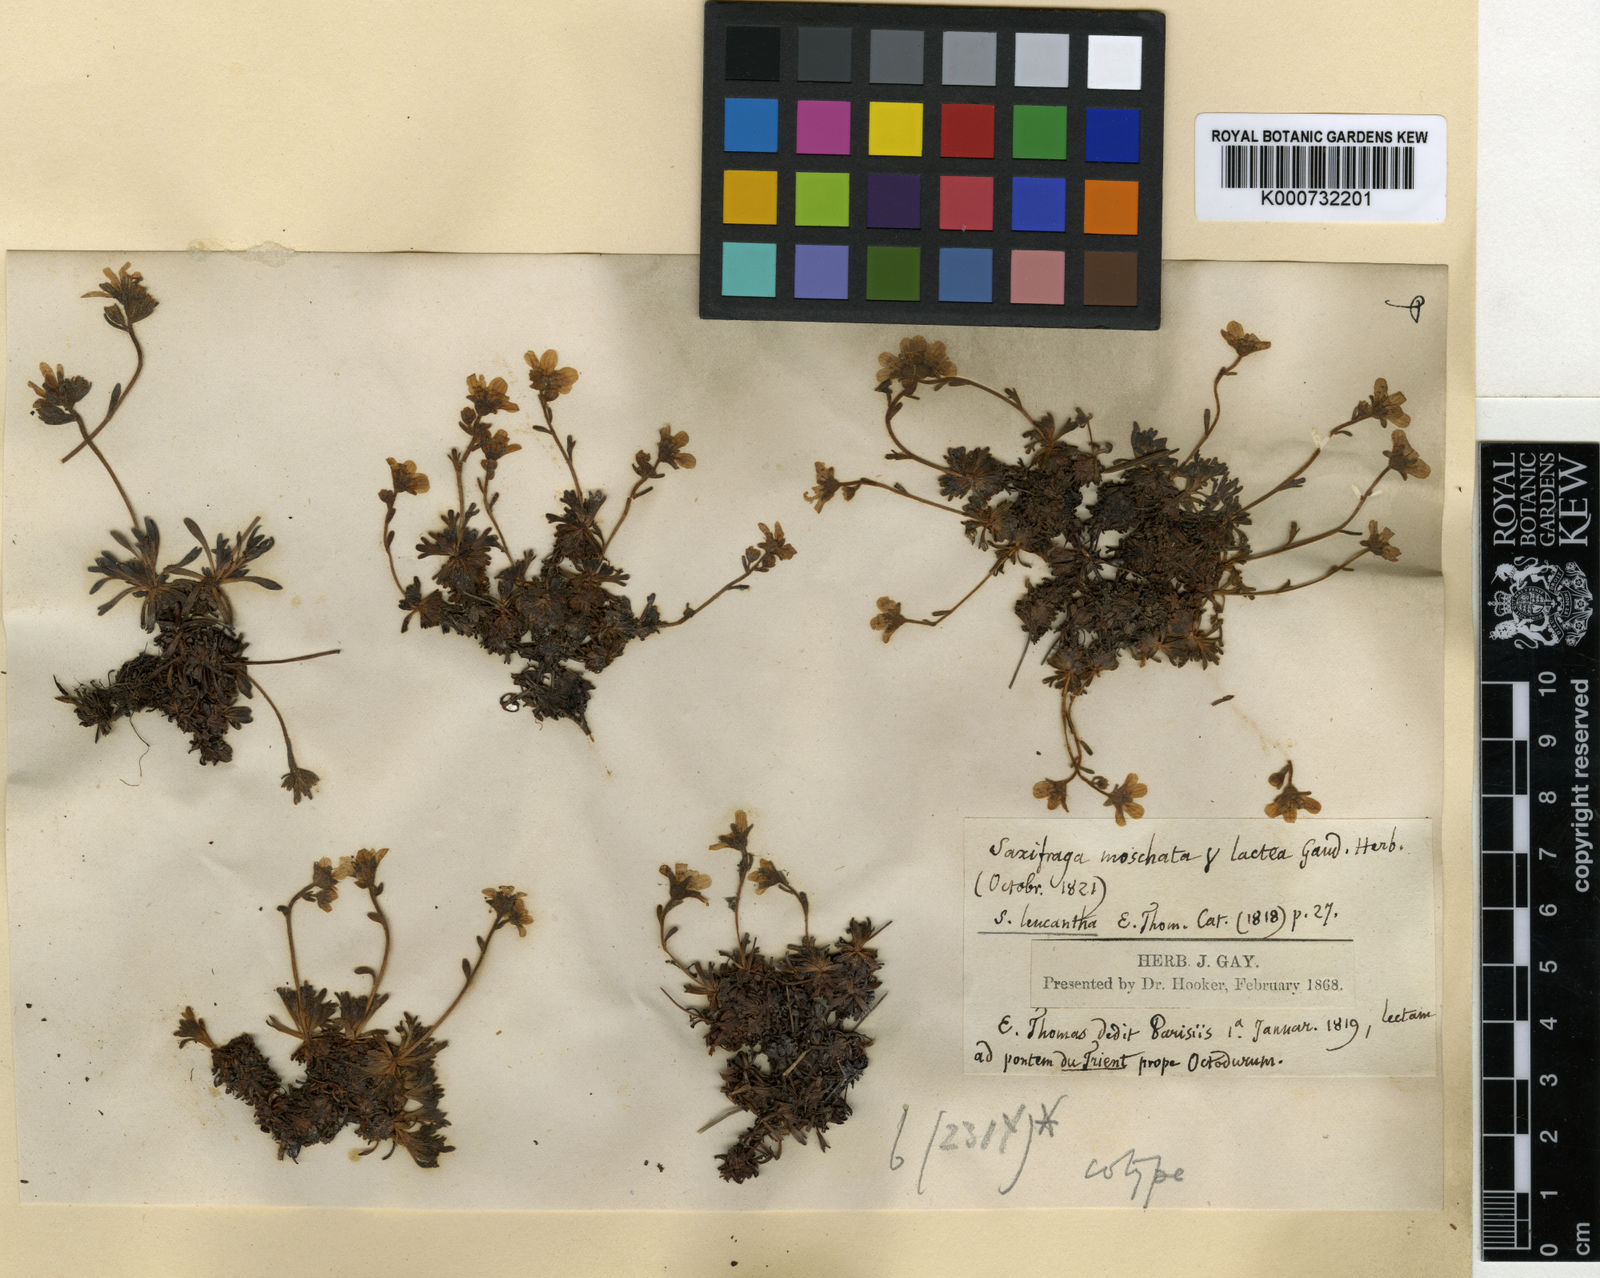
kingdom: Plantae
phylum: Tracheophyta
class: Magnoliopsida
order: Saxifragales
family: Saxifragaceae
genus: Saxifraga
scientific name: Saxifraga exarata
